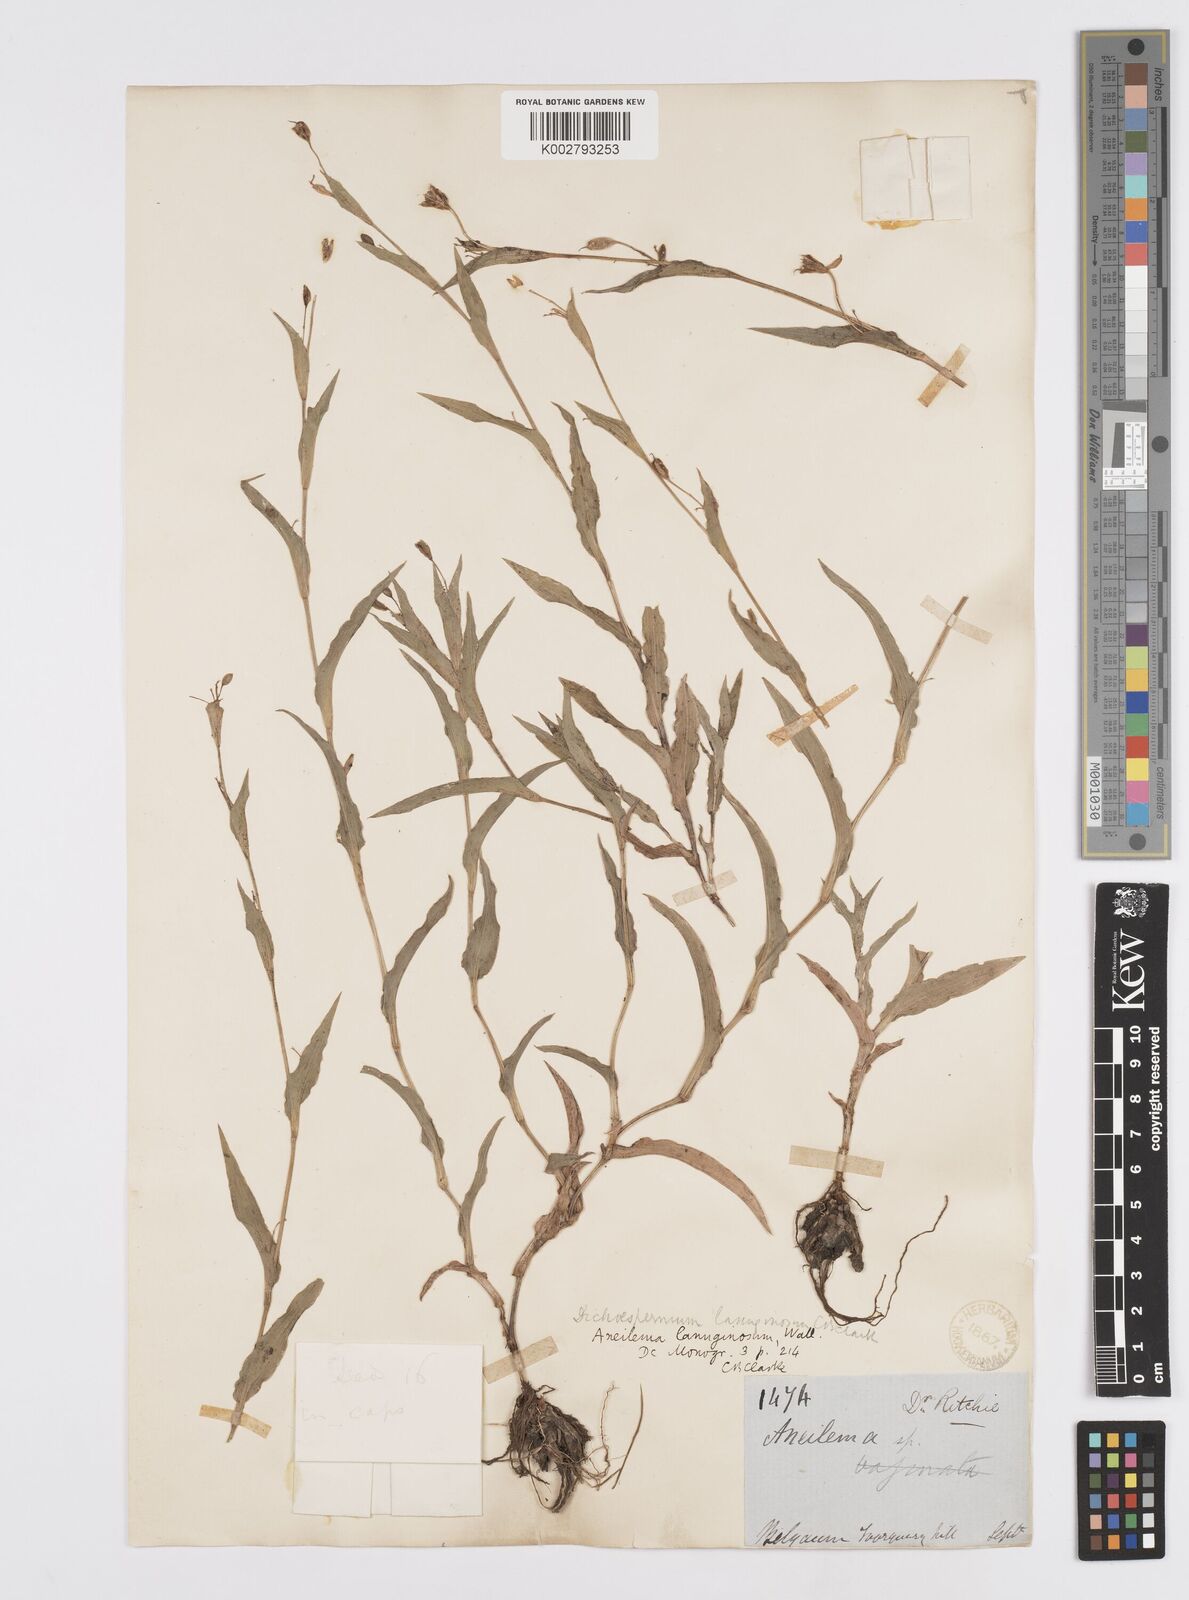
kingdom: Plantae
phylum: Tracheophyta
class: Liliopsida
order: Commelinales
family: Commelinaceae
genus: Murdannia
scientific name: Murdannia lanuginosa
